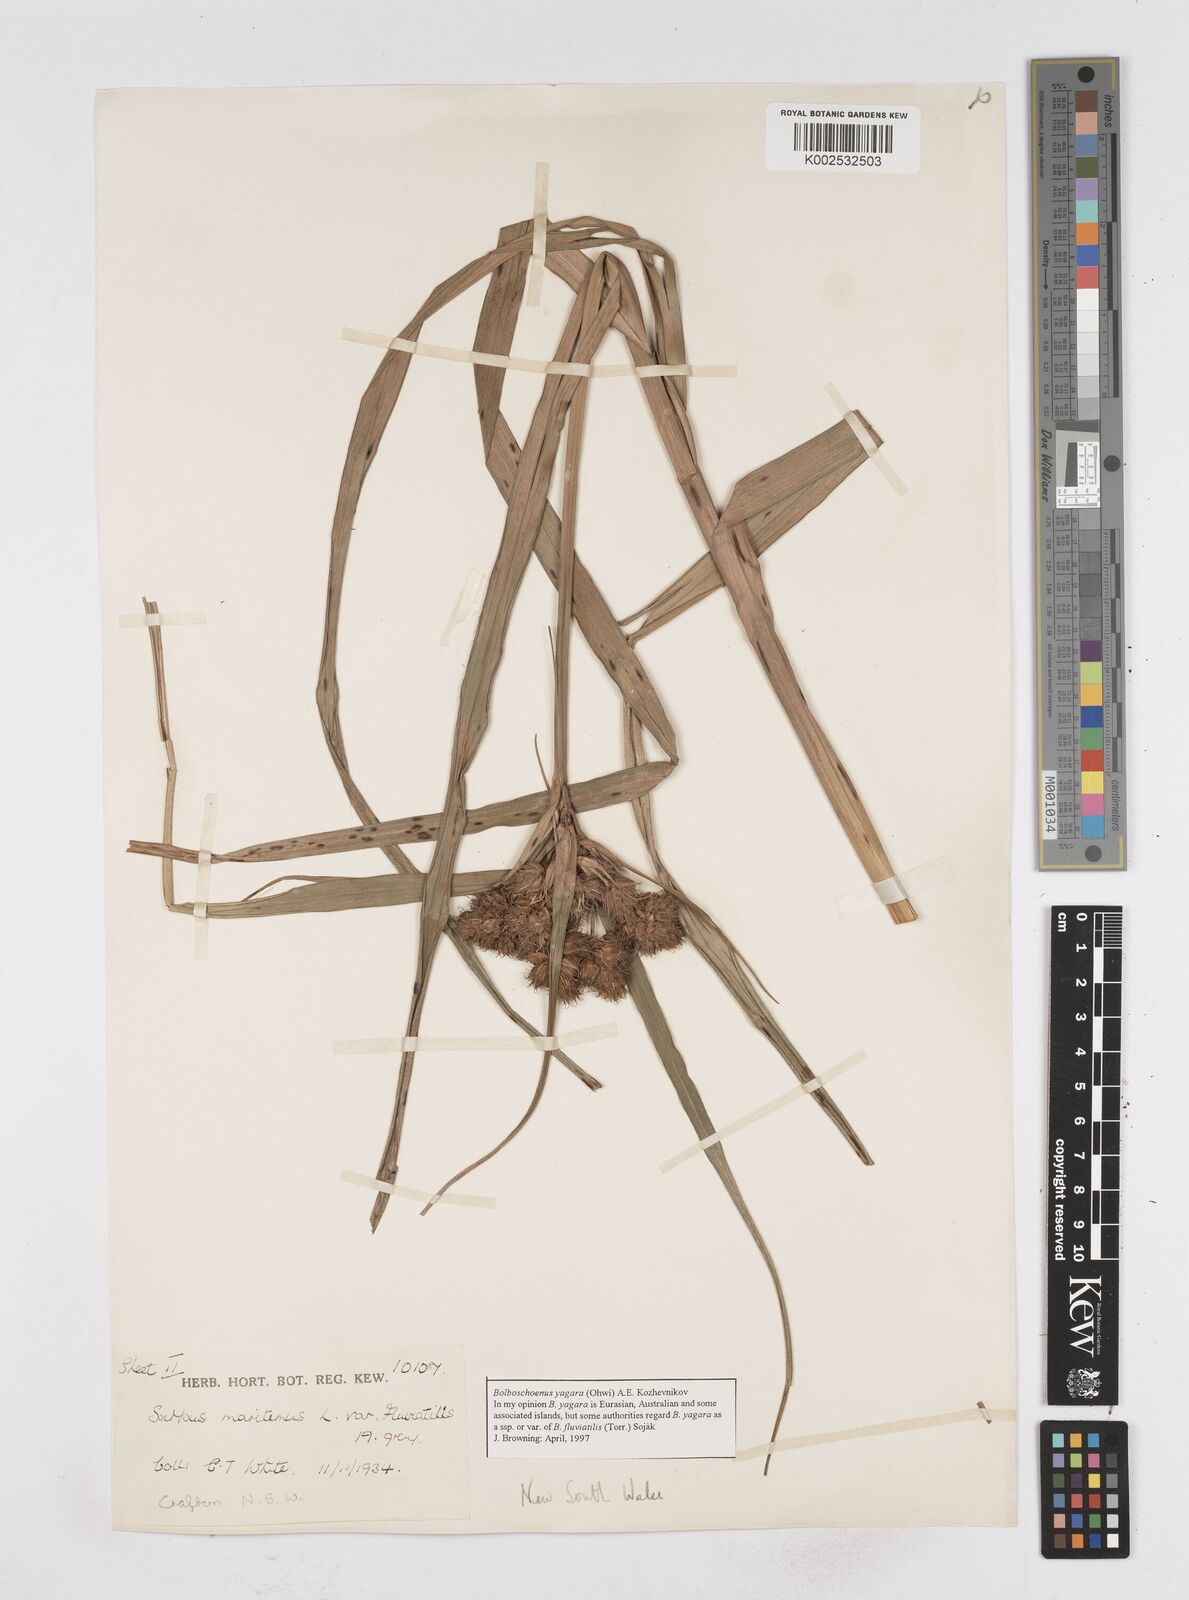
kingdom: Plantae
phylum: Tracheophyta
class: Liliopsida
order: Poales
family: Cyperaceae
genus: Bolboschoenus
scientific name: Bolboschoenus maritimus
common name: Sea club-rush
